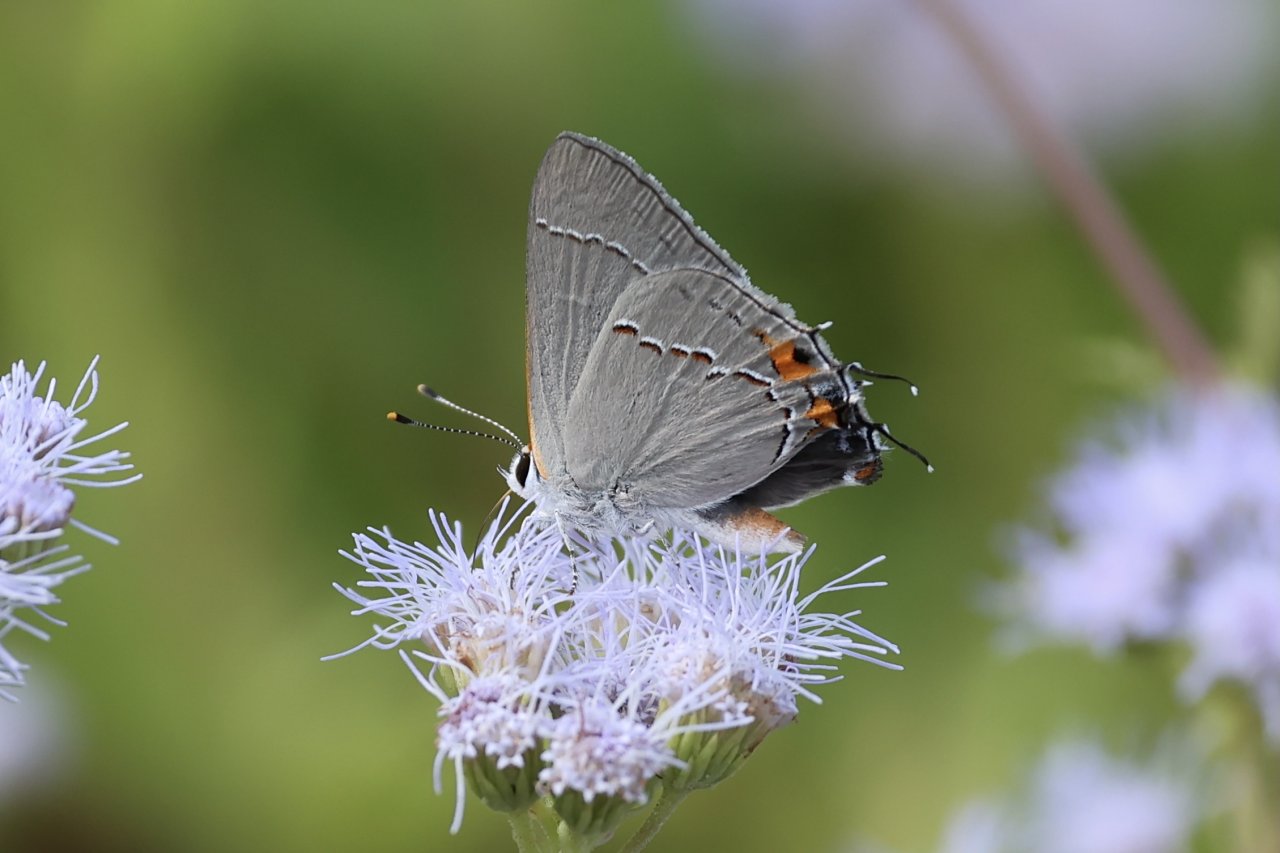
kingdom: Animalia
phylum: Arthropoda
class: Insecta
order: Lepidoptera
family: Lycaenidae
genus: Strymon
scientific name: Strymon melinus
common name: Gray Hairstreak
